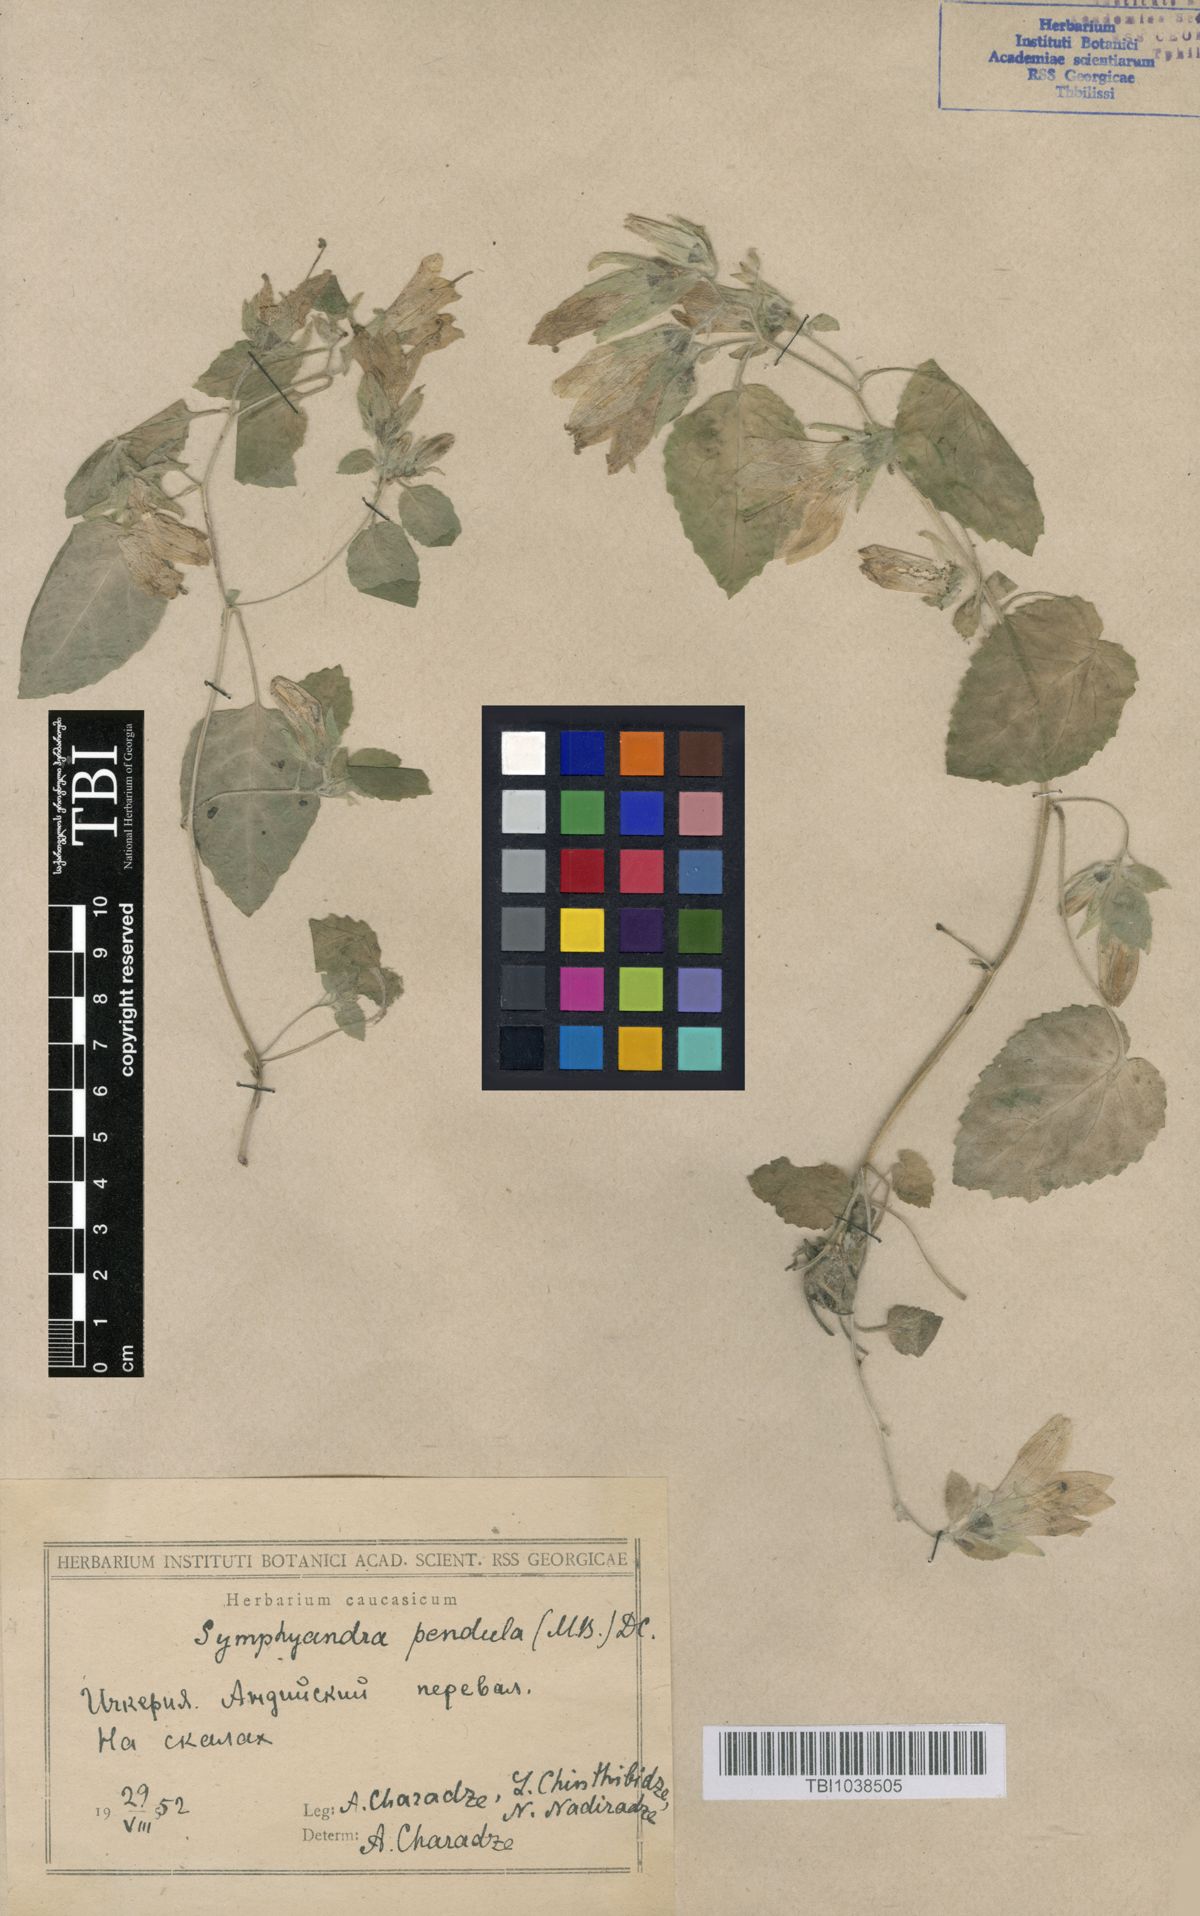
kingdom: Plantae
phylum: Tracheophyta
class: Magnoliopsida
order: Asterales
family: Campanulaceae
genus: Campanula
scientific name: Campanula pendula
